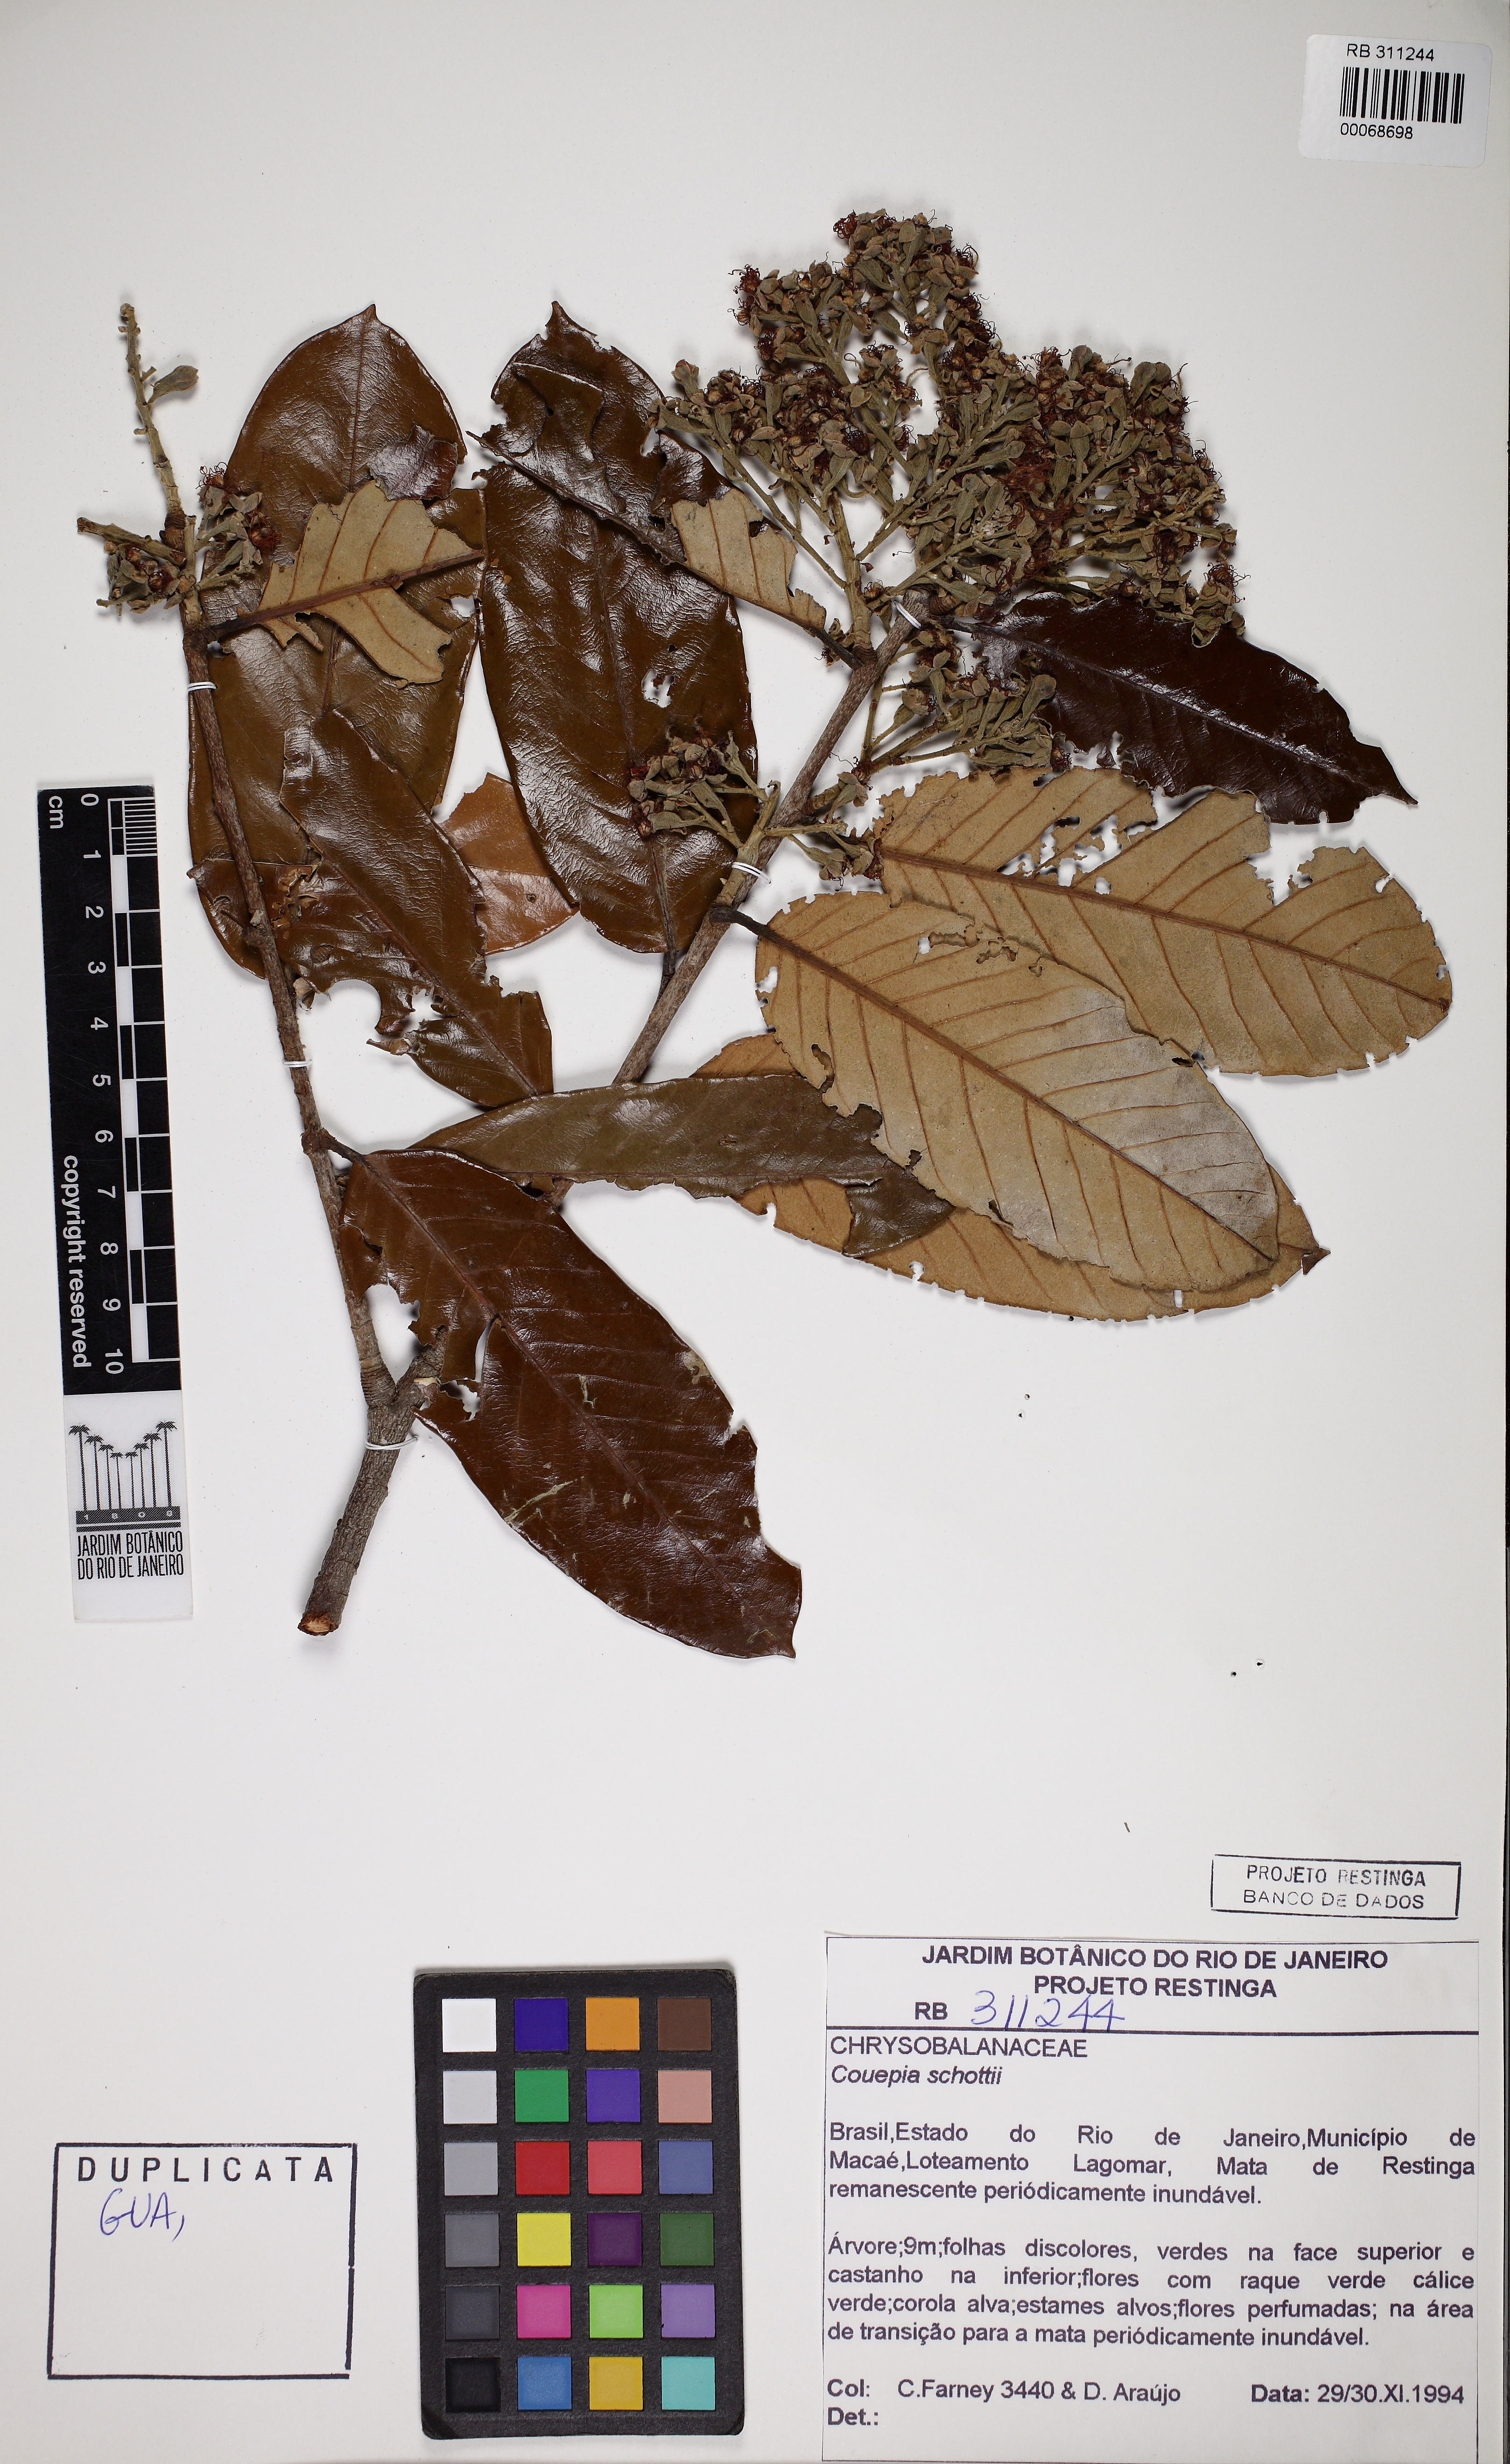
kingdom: Plantae
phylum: Tracheophyta
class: Magnoliopsida
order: Malpighiales
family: Chrysobalanaceae
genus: Couepia
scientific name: Couepia schottii
